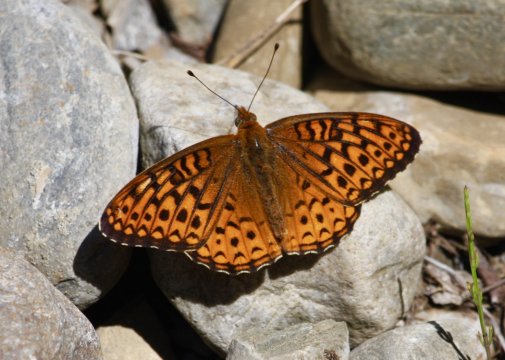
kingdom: Animalia
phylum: Arthropoda
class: Insecta
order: Lepidoptera
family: Nymphalidae
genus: Speyeria
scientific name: Speyeria atlantis
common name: Atlantis Fritillary
